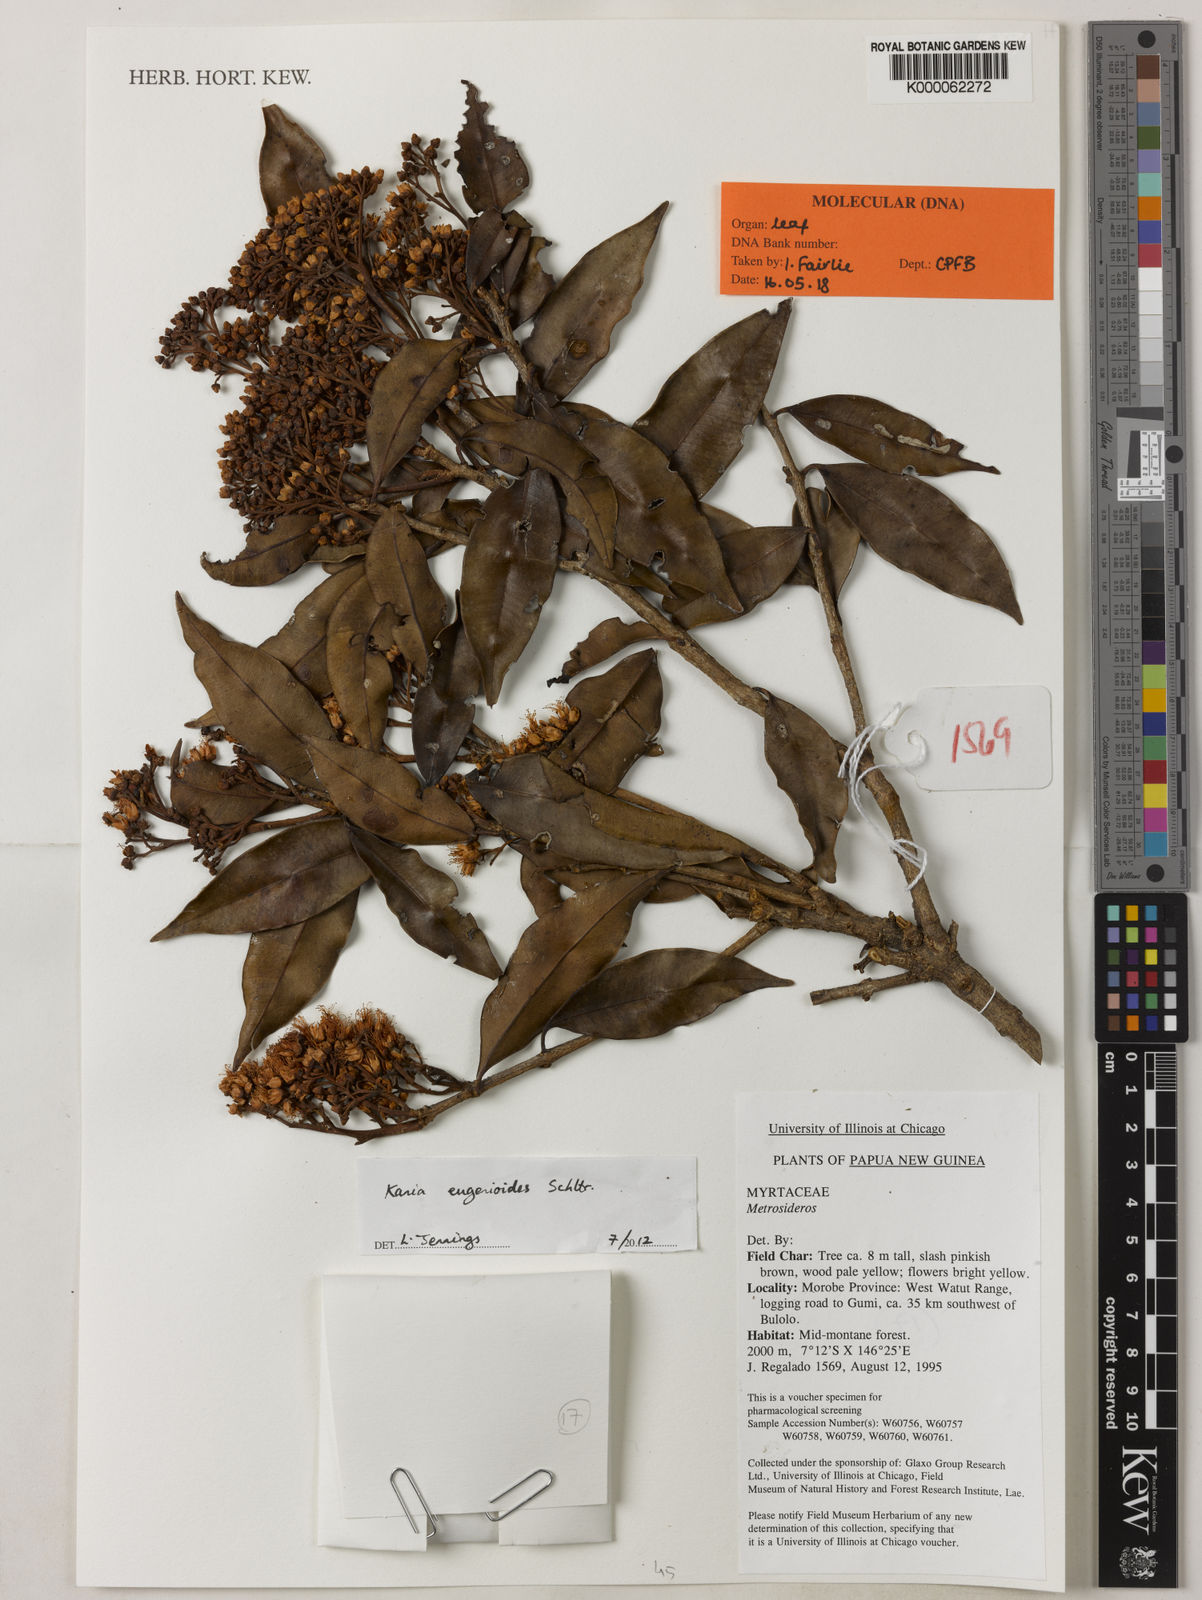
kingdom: Plantae
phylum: Tracheophyta
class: Magnoliopsida
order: Myrtales
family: Myrtaceae
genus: Kania
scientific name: Kania eugenioides
